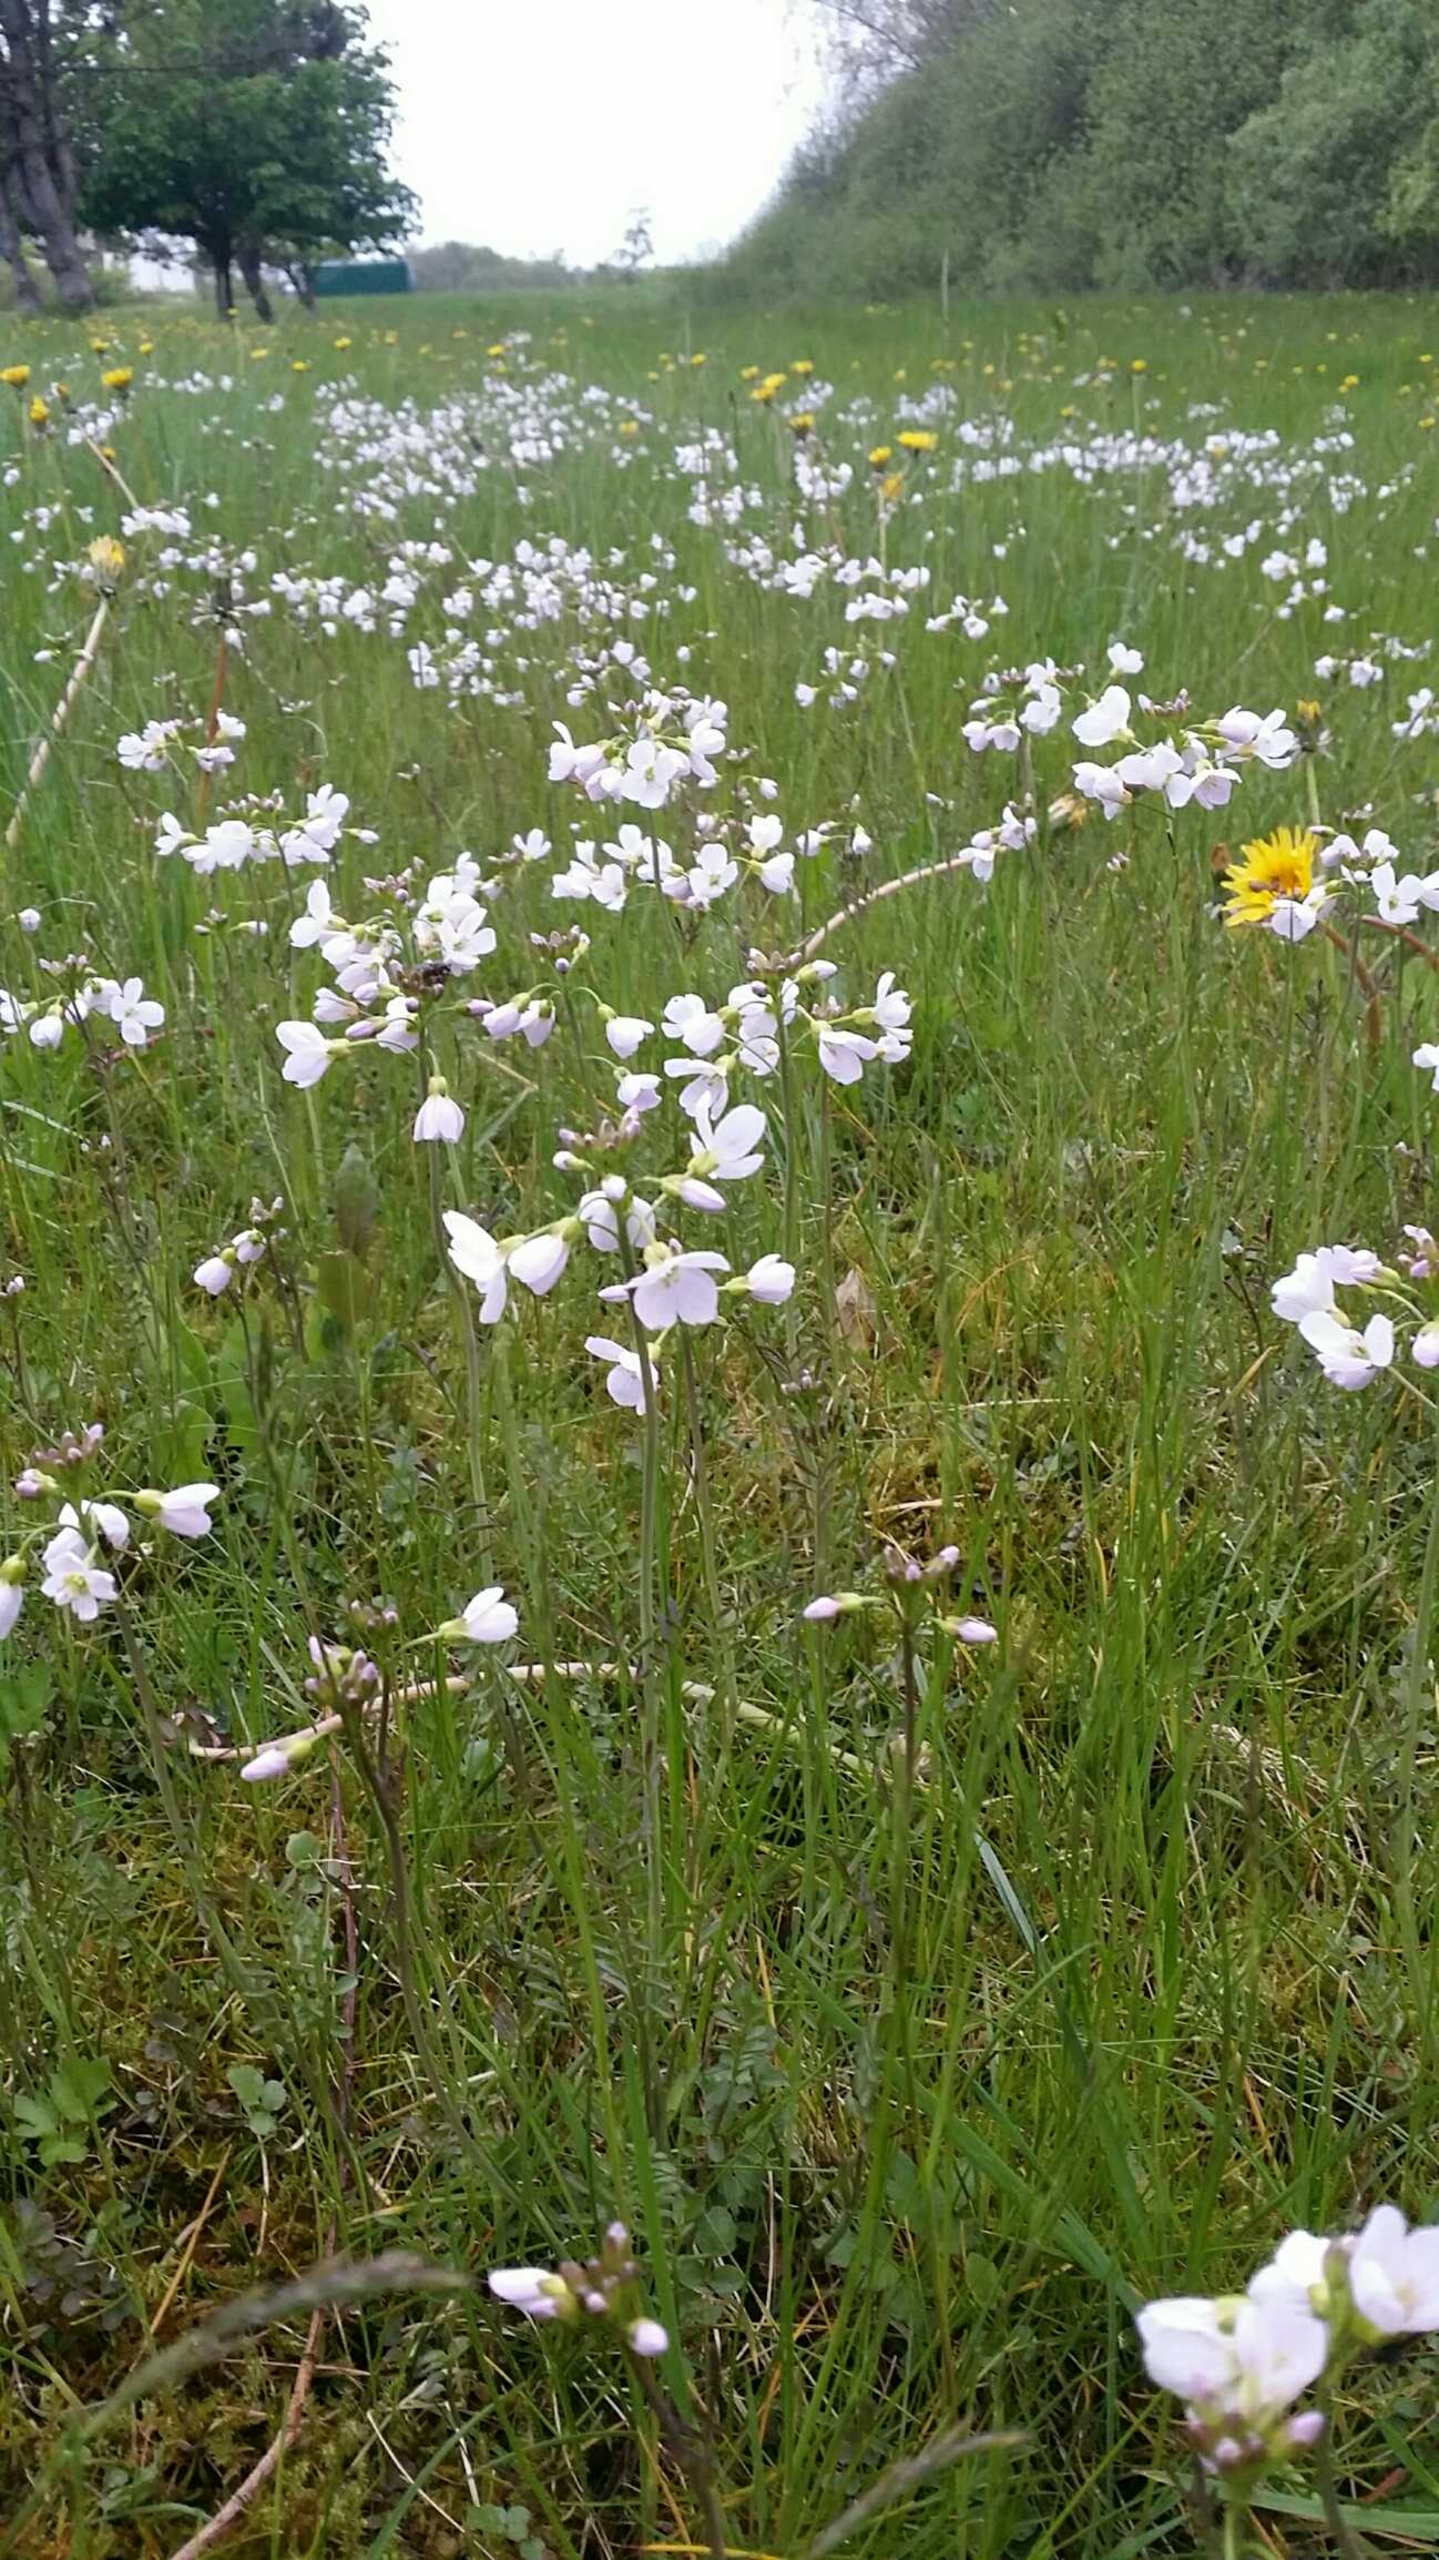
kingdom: Plantae
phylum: Tracheophyta
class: Magnoliopsida
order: Brassicales
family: Brassicaceae
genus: Cardamine
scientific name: Cardamine pratensis
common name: Engkarse
